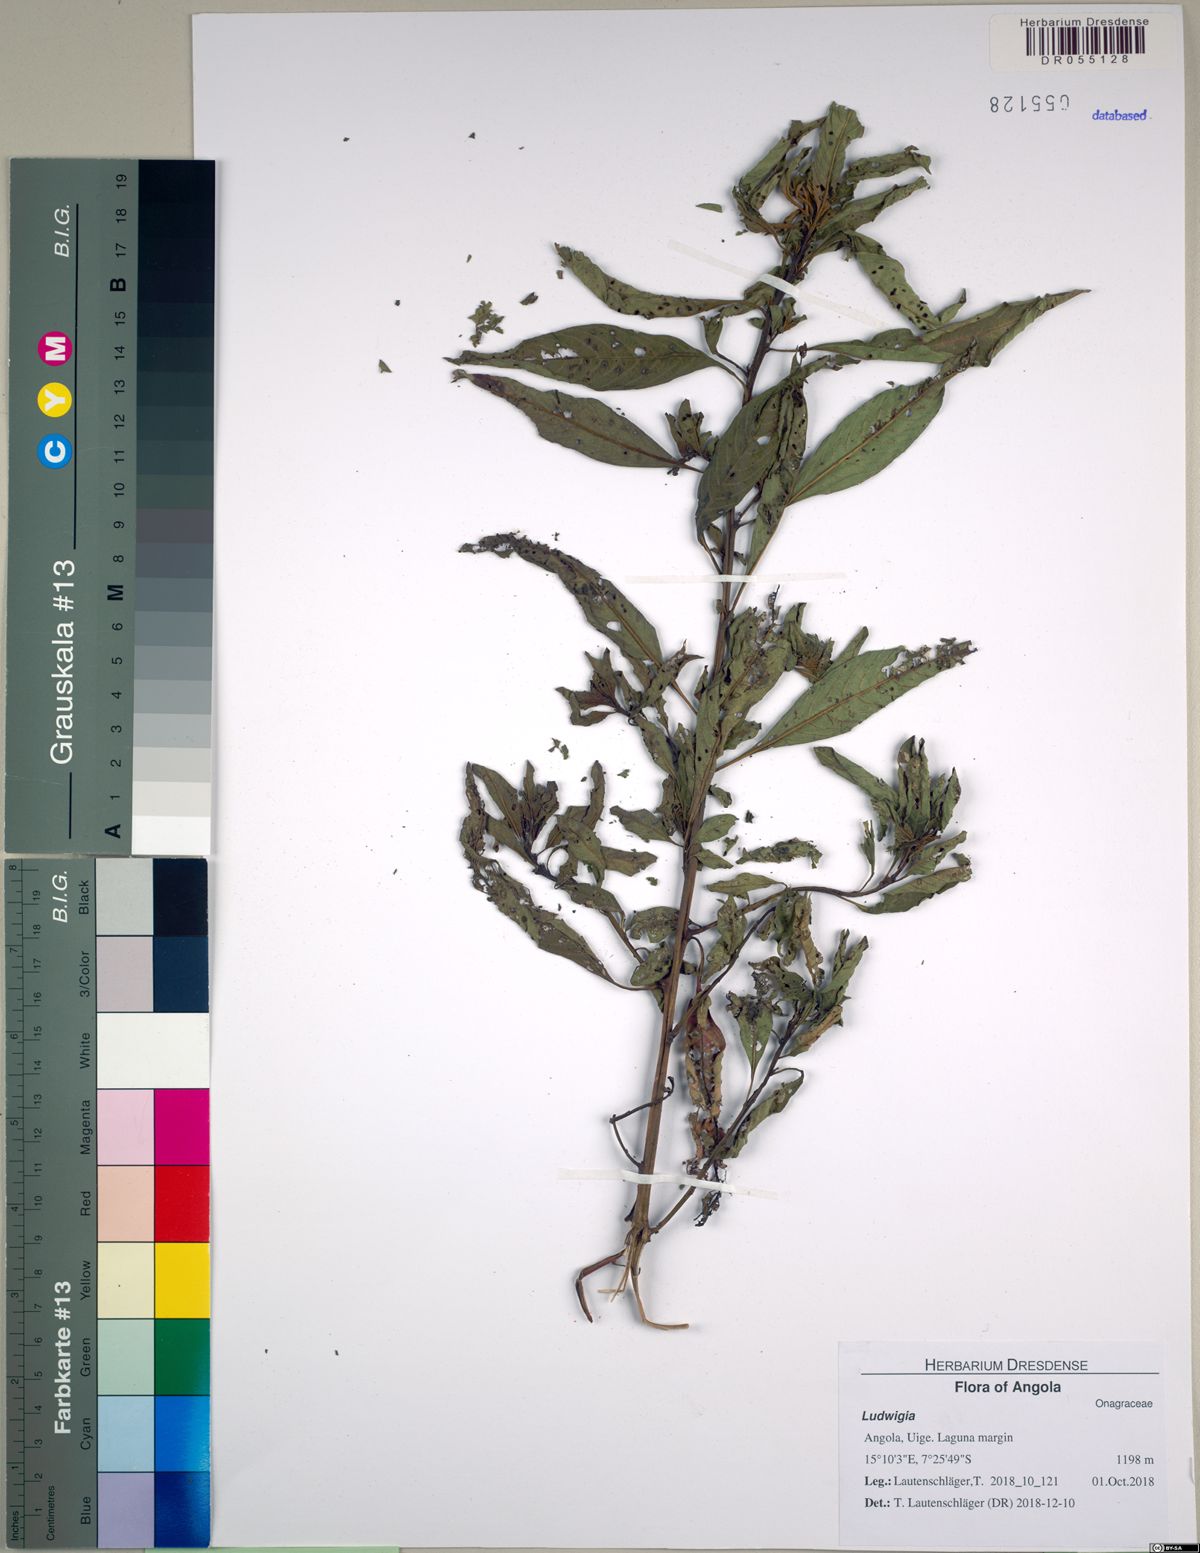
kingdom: Plantae
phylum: Tracheophyta
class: Magnoliopsida
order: Myrtales
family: Onagraceae
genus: Ludwigia
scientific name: Ludwigia
